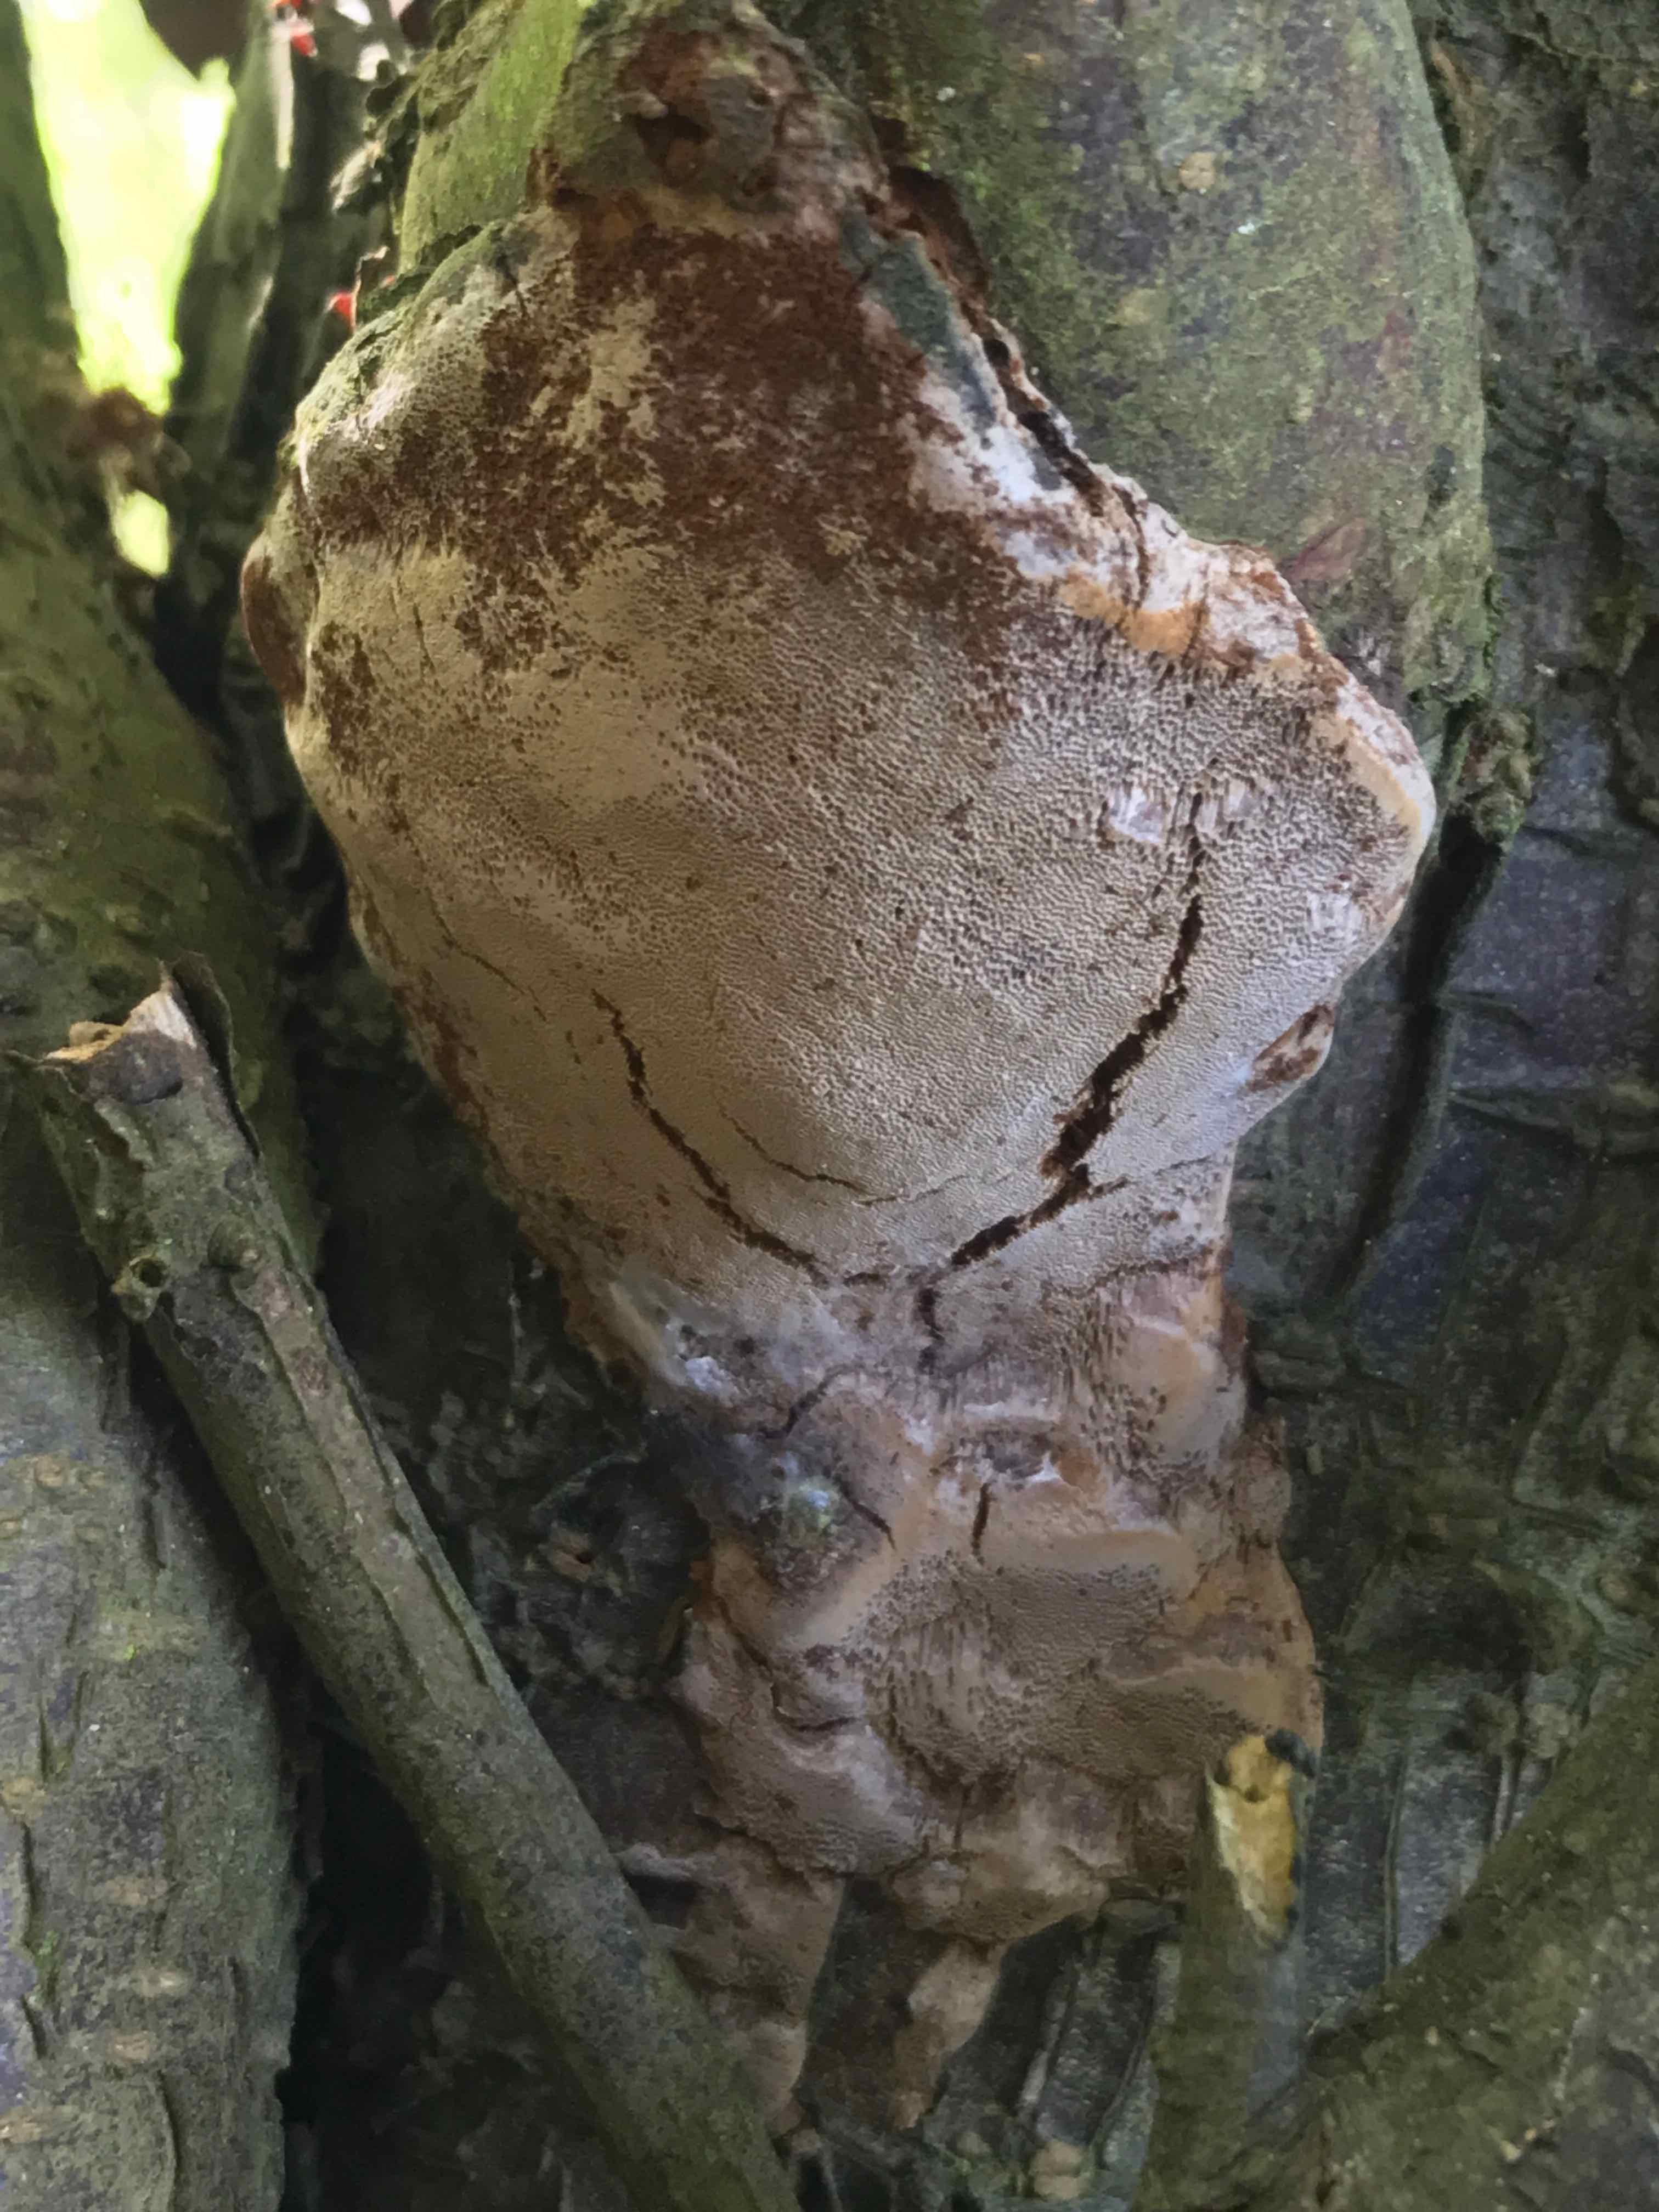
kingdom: Fungi
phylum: Basidiomycota
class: Agaricomycetes
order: Hymenochaetales
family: Hymenochaetaceae
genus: Phellinus
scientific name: Phellinus pomaceus
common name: blomme-ildporesvamp
